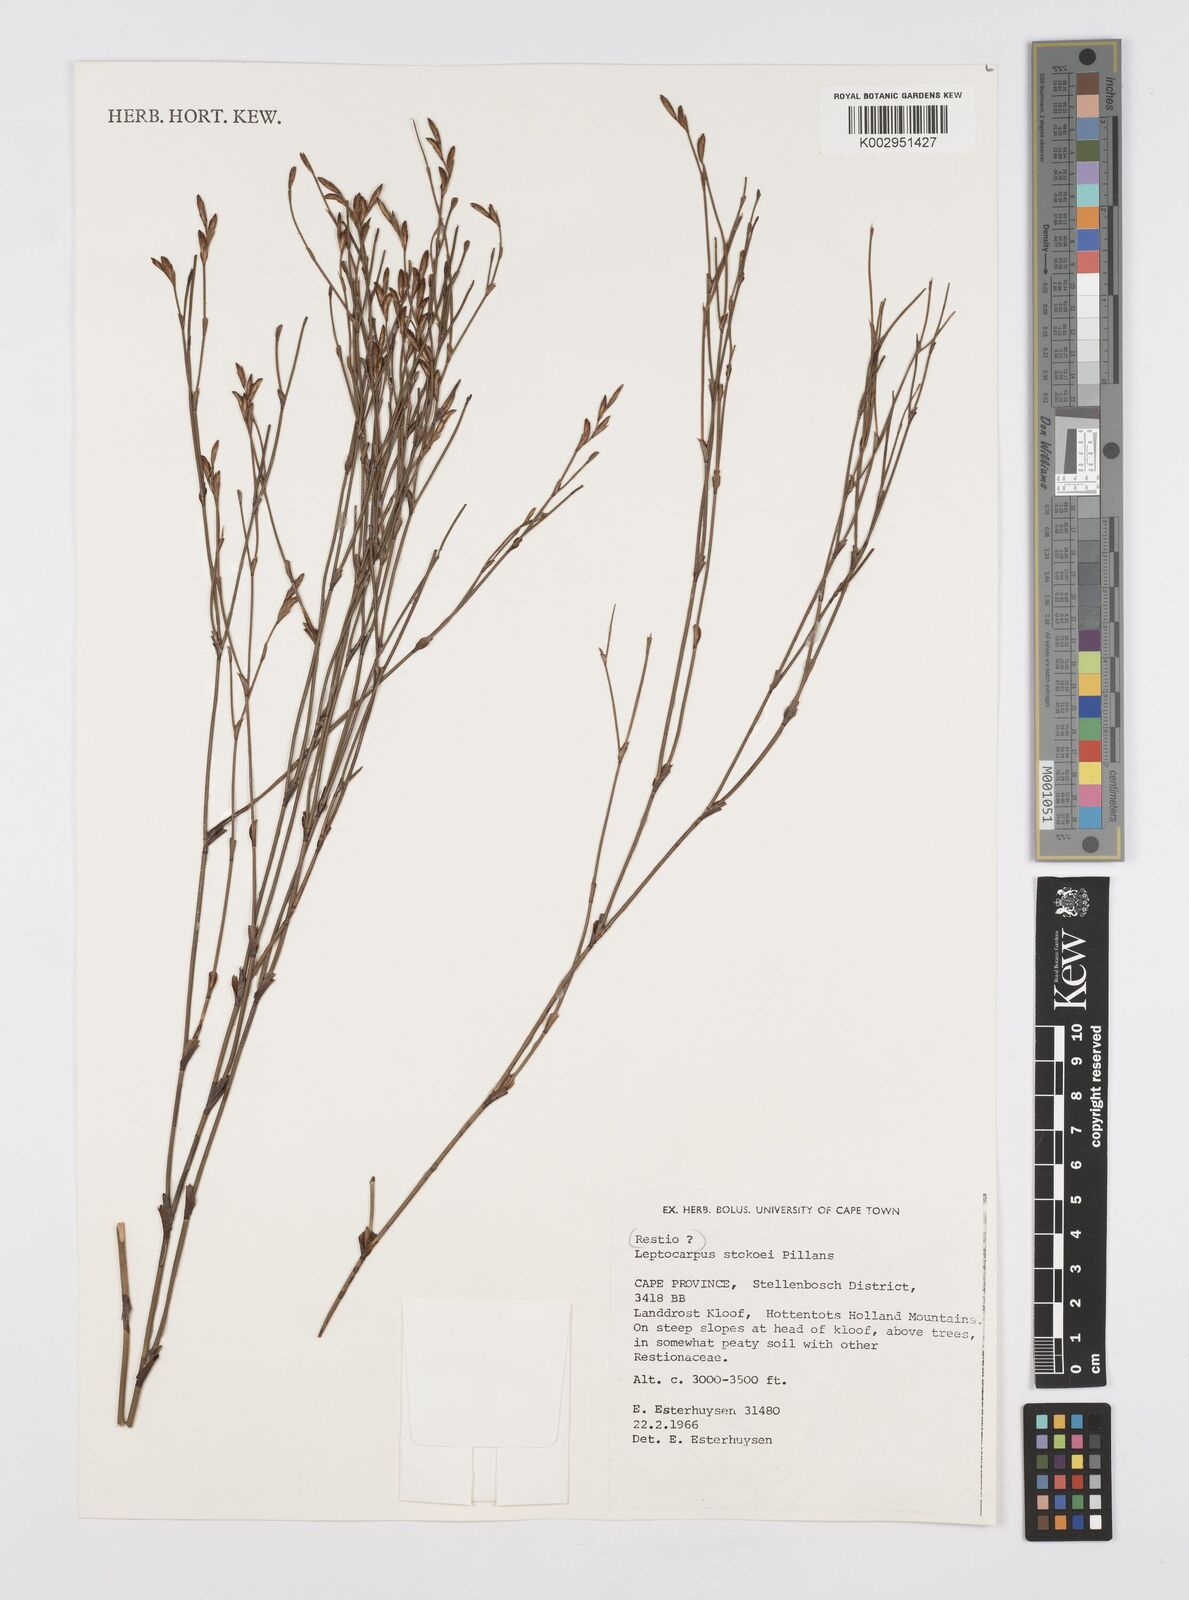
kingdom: Plantae
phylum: Tracheophyta
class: Liliopsida
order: Poales
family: Restionaceae
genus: Restio
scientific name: Restio pillansii
